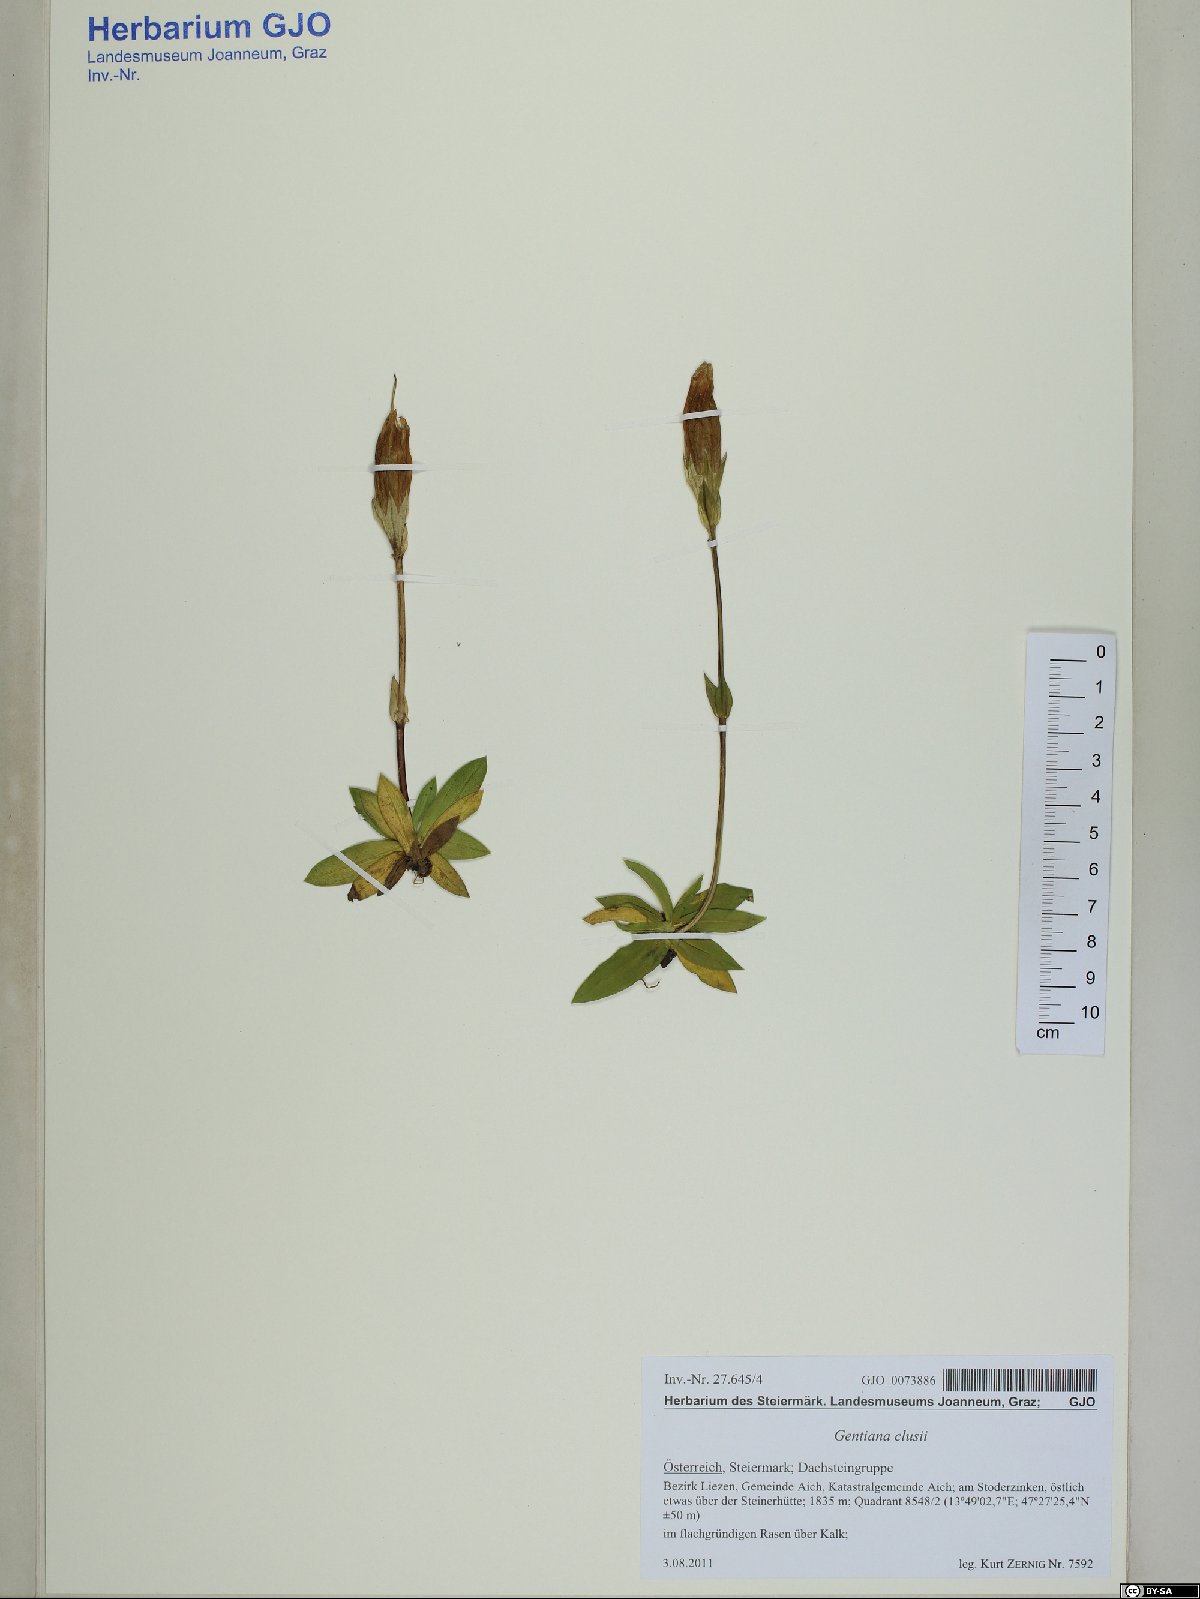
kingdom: Plantae
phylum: Tracheophyta
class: Magnoliopsida
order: Gentianales
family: Gentianaceae
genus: Gentiana
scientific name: Gentiana clusii
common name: Trumpet gentian
